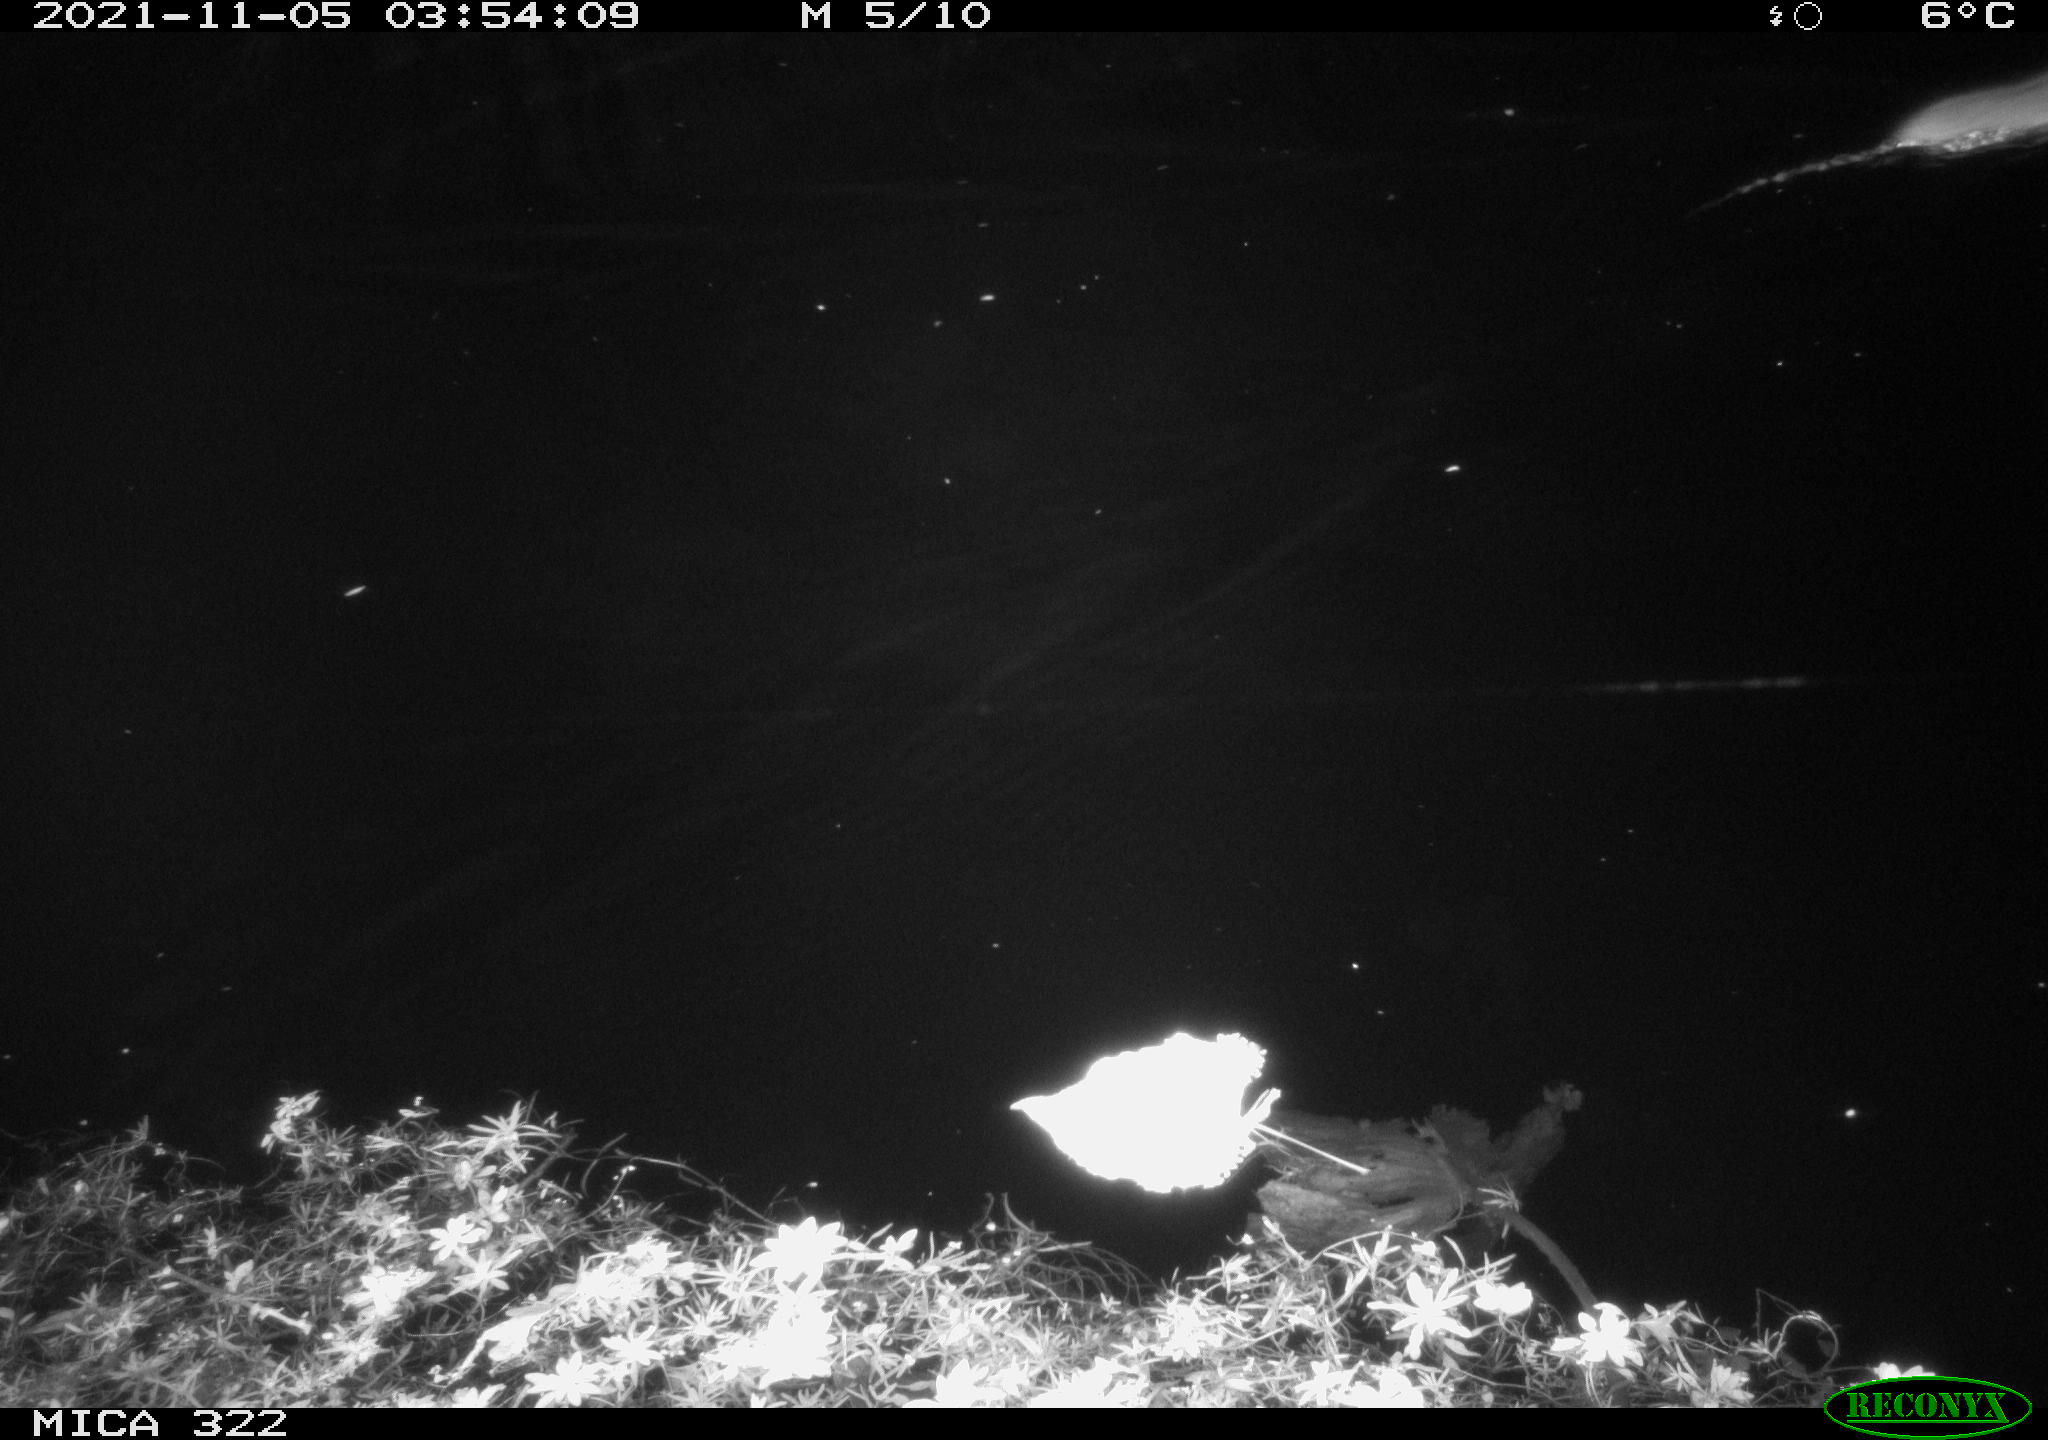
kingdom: Animalia
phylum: Chordata
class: Mammalia
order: Rodentia
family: Muridae
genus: Rattus
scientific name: Rattus norvegicus
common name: Brown rat
